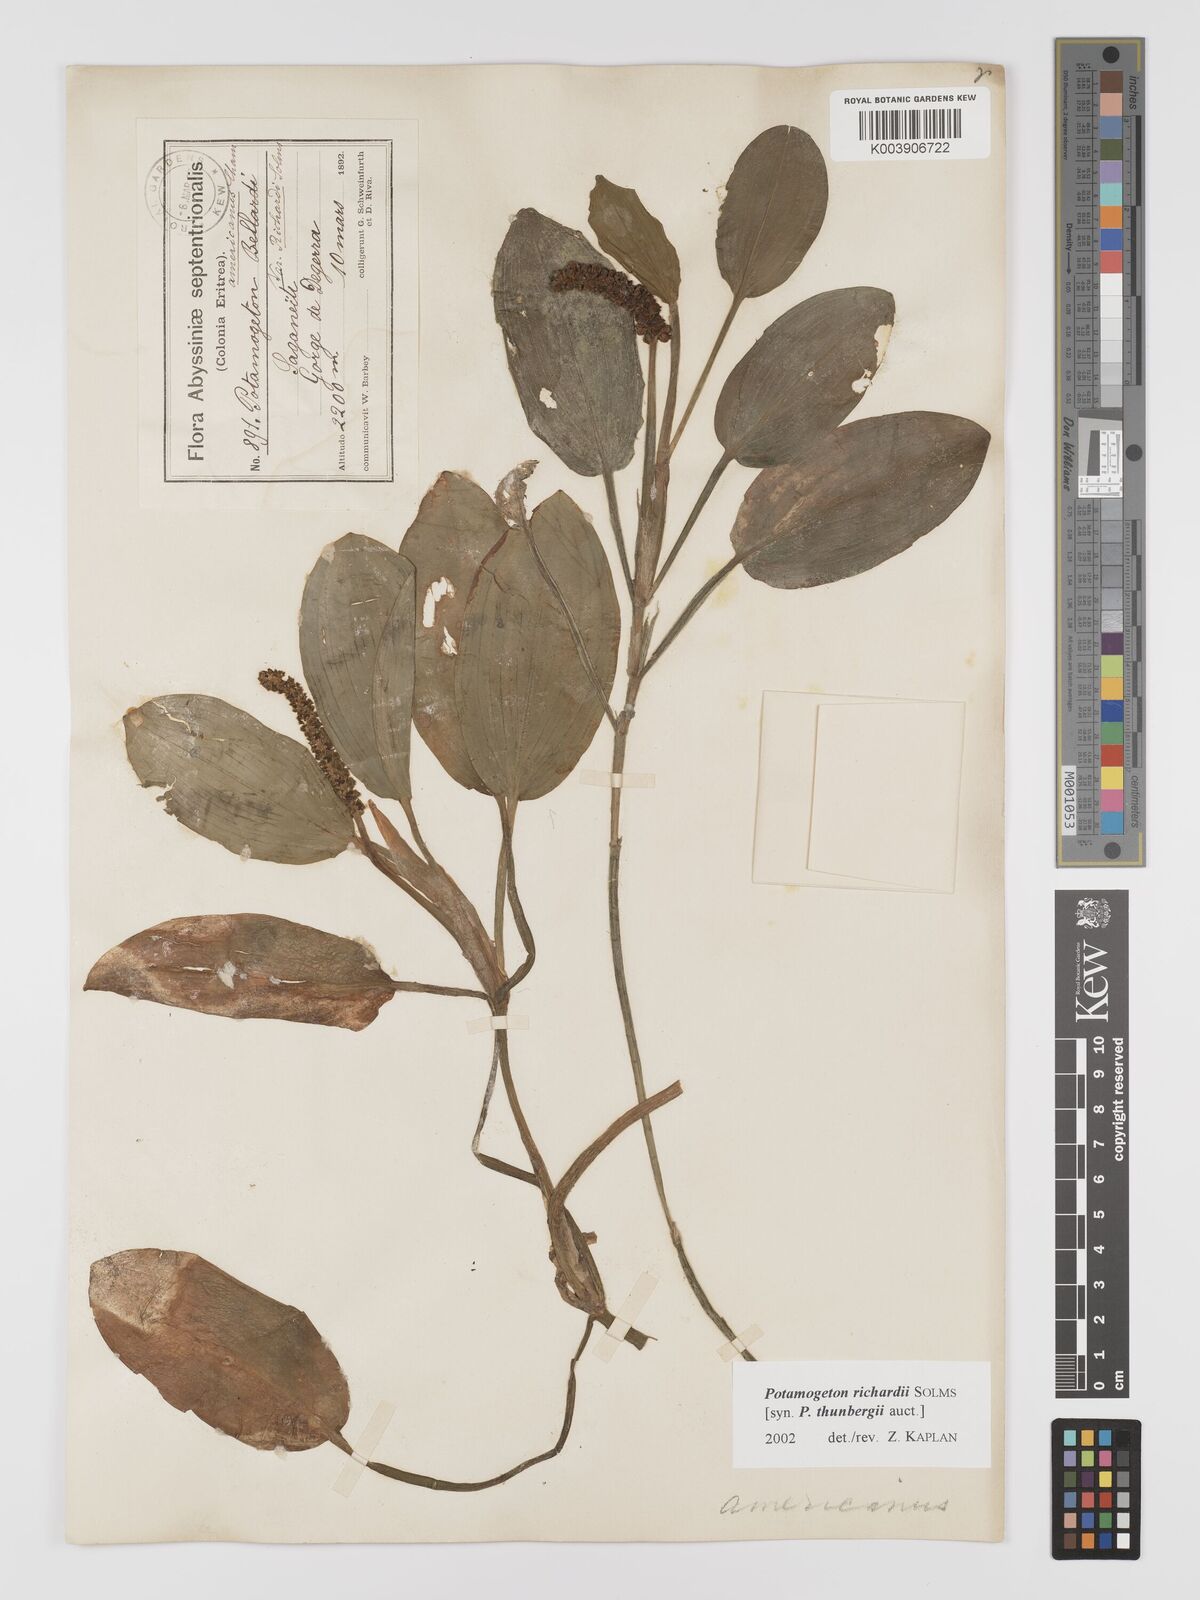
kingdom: Plantae
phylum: Tracheophyta
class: Liliopsida
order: Alismatales
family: Potamogetonaceae
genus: Potamogeton
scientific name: Potamogeton nodosus
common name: Loddon pondweed
